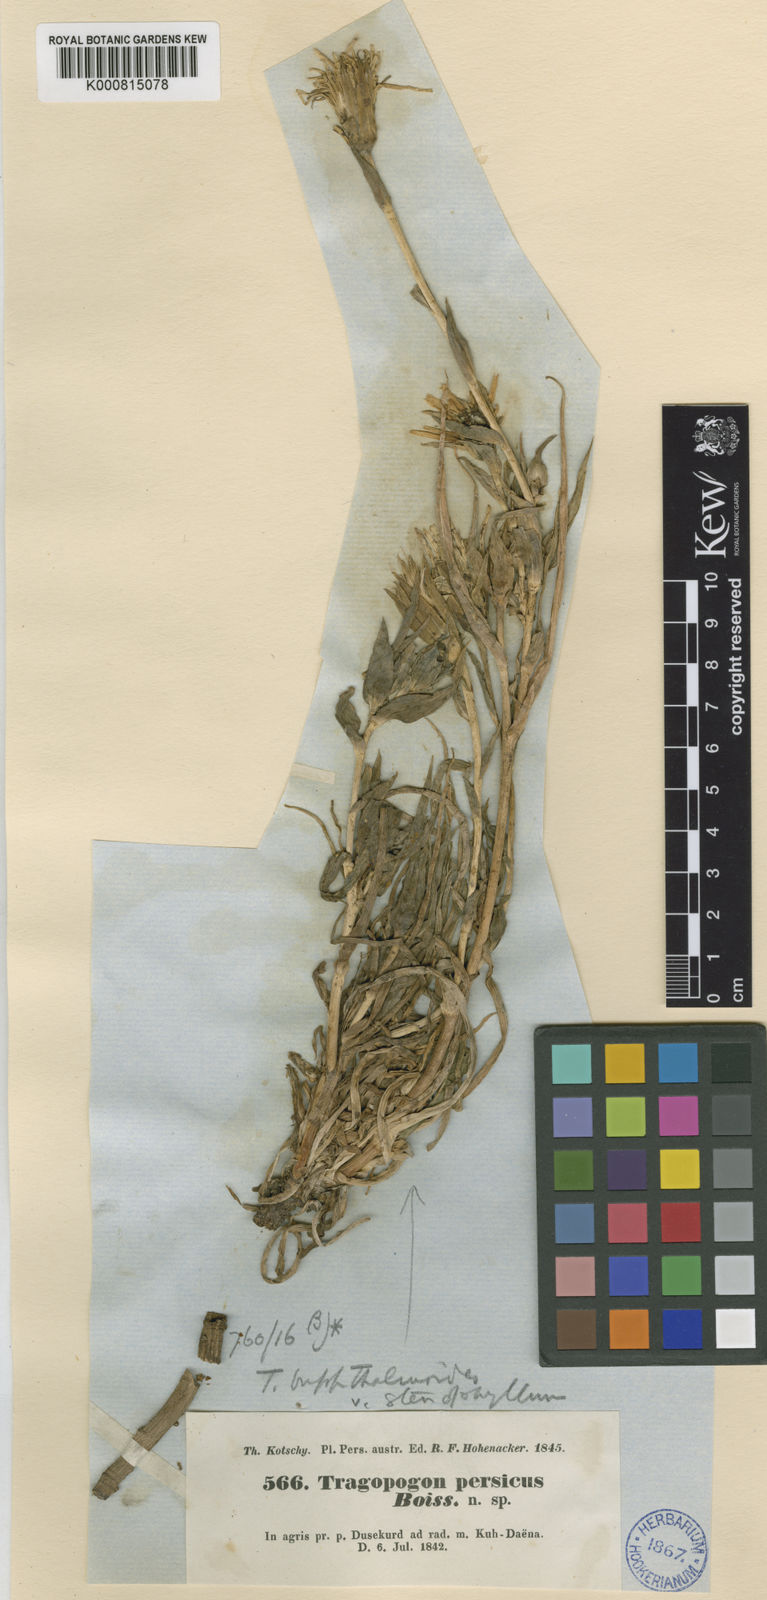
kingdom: Plantae
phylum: Tracheophyta
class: Magnoliopsida
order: Asterales
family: Asteraceae
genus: Tragopogon
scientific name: Tragopogon buphthalmoides
